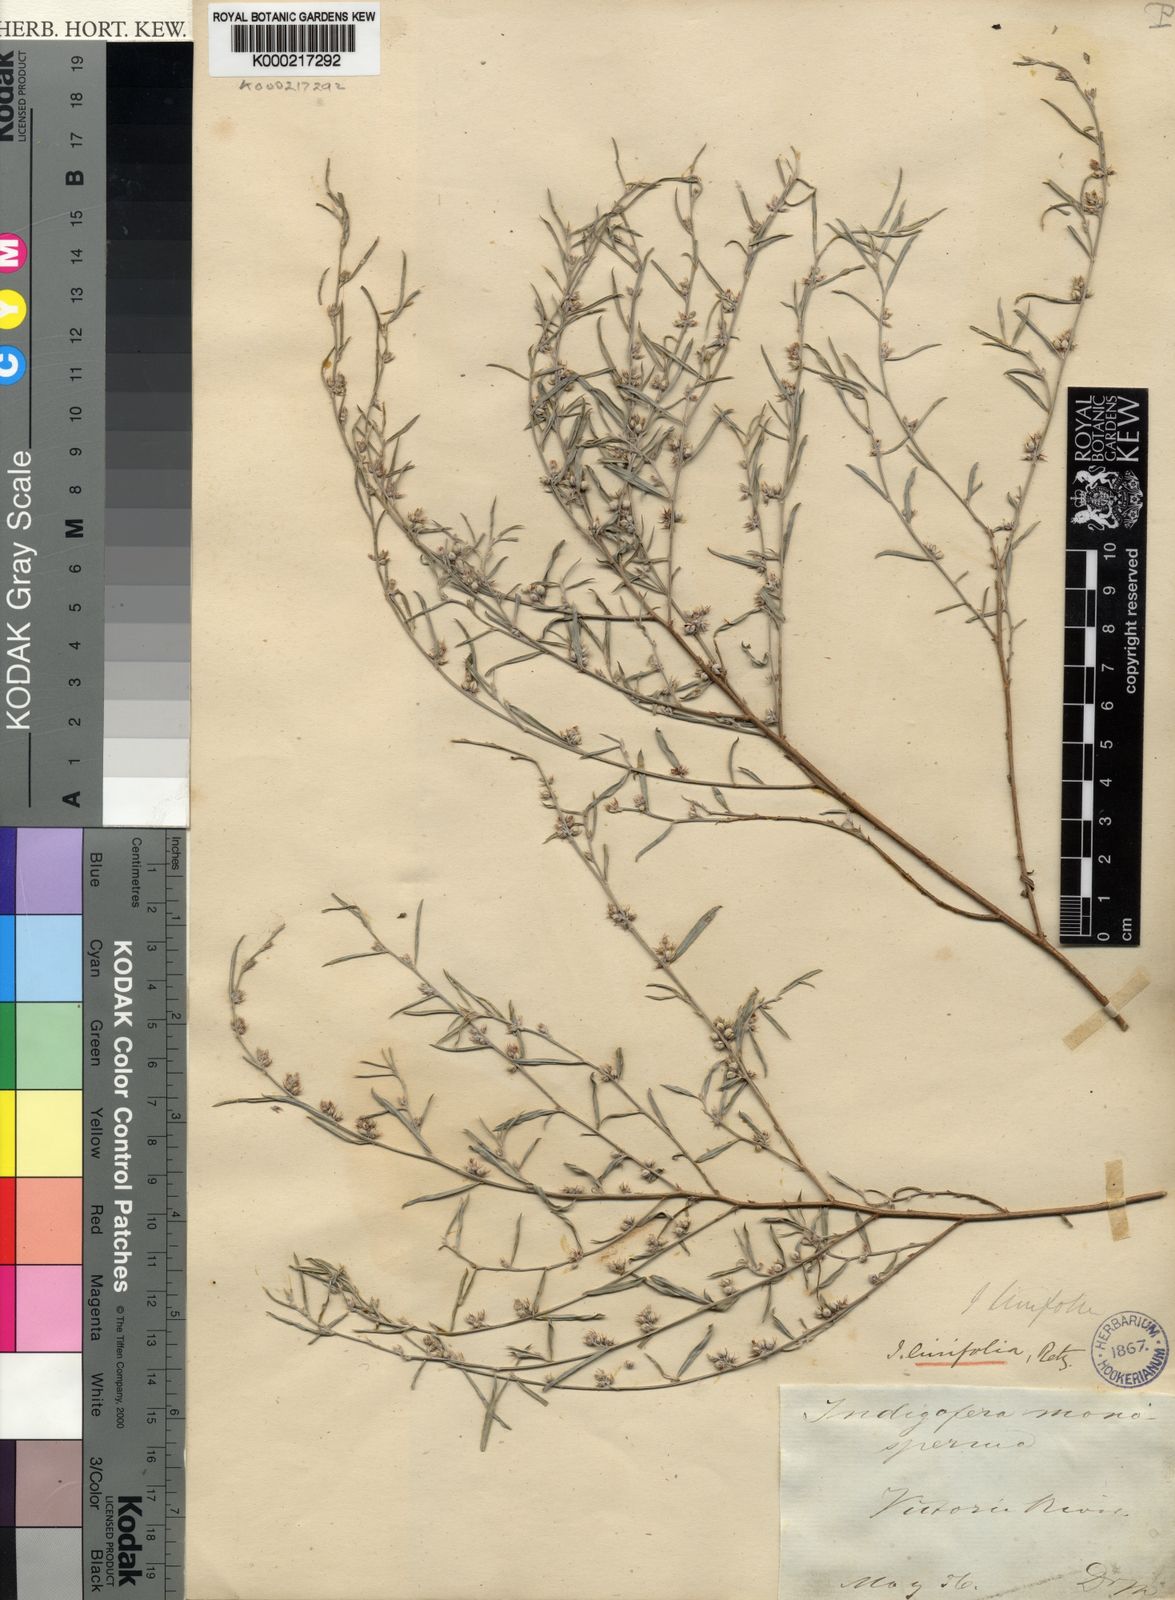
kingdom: Plantae
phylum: Tracheophyta
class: Magnoliopsida
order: Fabales
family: Fabaceae
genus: Indigofera
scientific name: Indigofera linifolia
